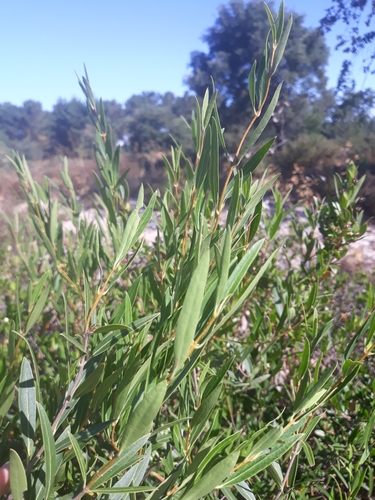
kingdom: Plantae
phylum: Tracheophyta
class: Magnoliopsida
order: Lamiales
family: Oleaceae
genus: Phillyrea
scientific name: Phillyrea angustifolia
